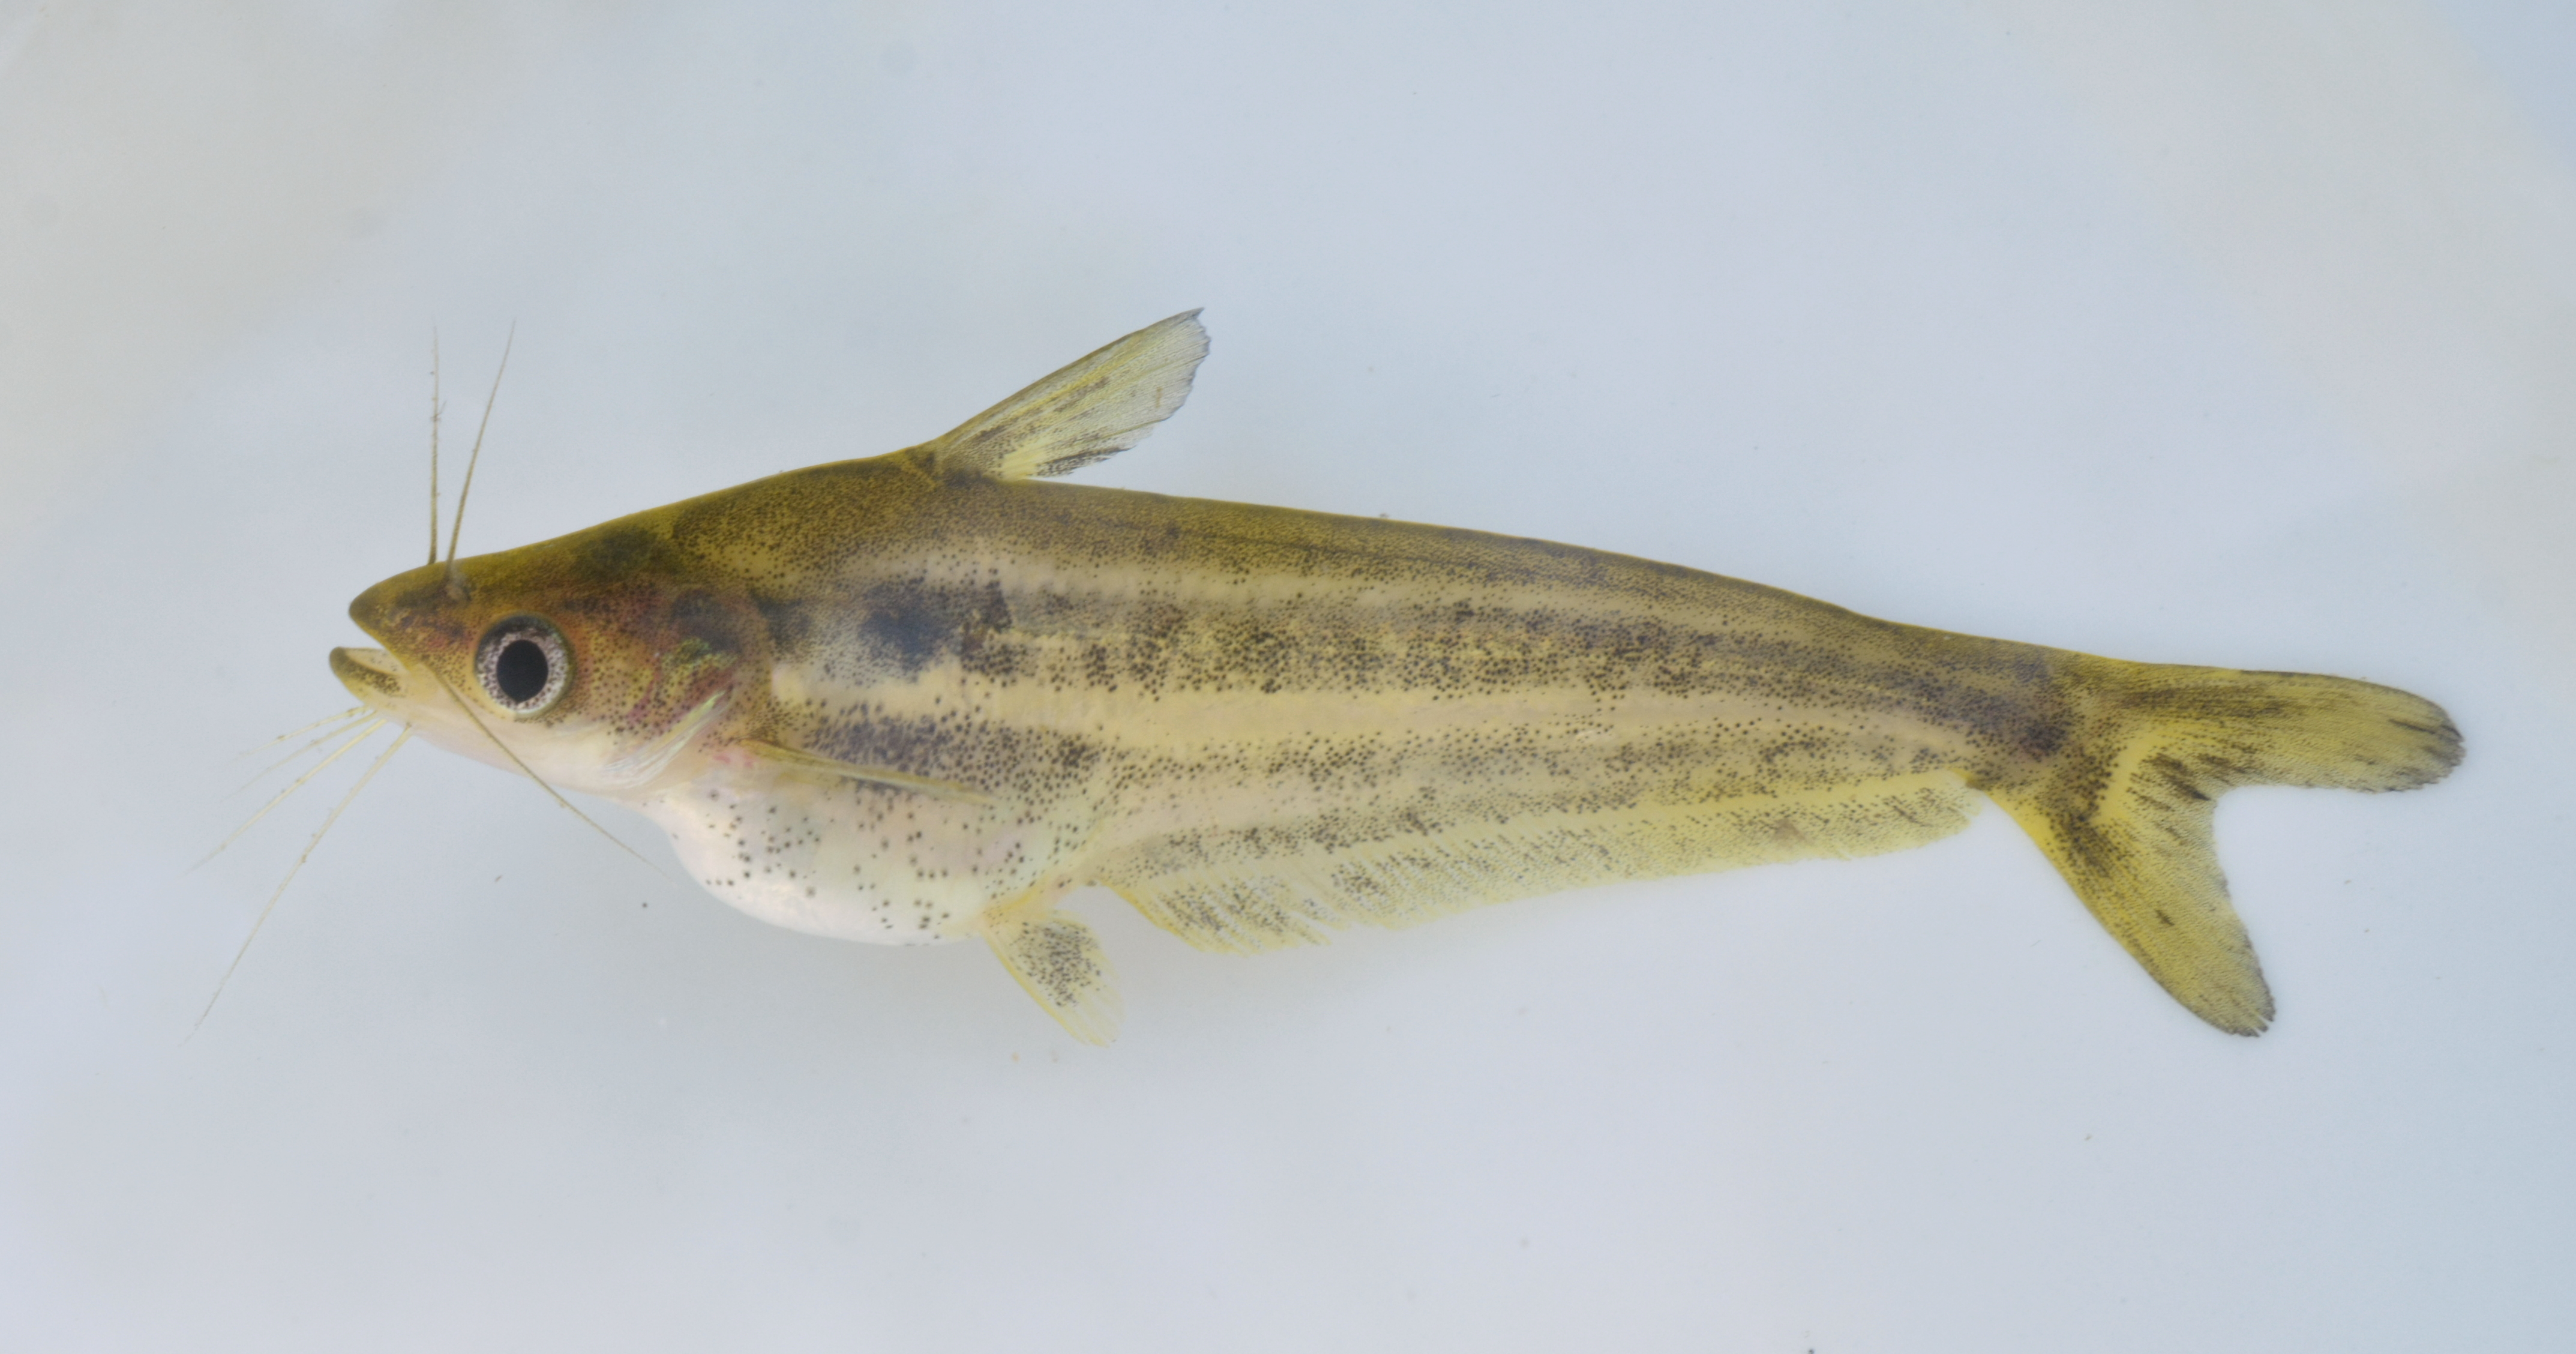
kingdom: Animalia
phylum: Chordata
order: Siluriformes
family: Schilbeidae
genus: Schilbe
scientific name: Schilbe intermedius
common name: Silver catfish
